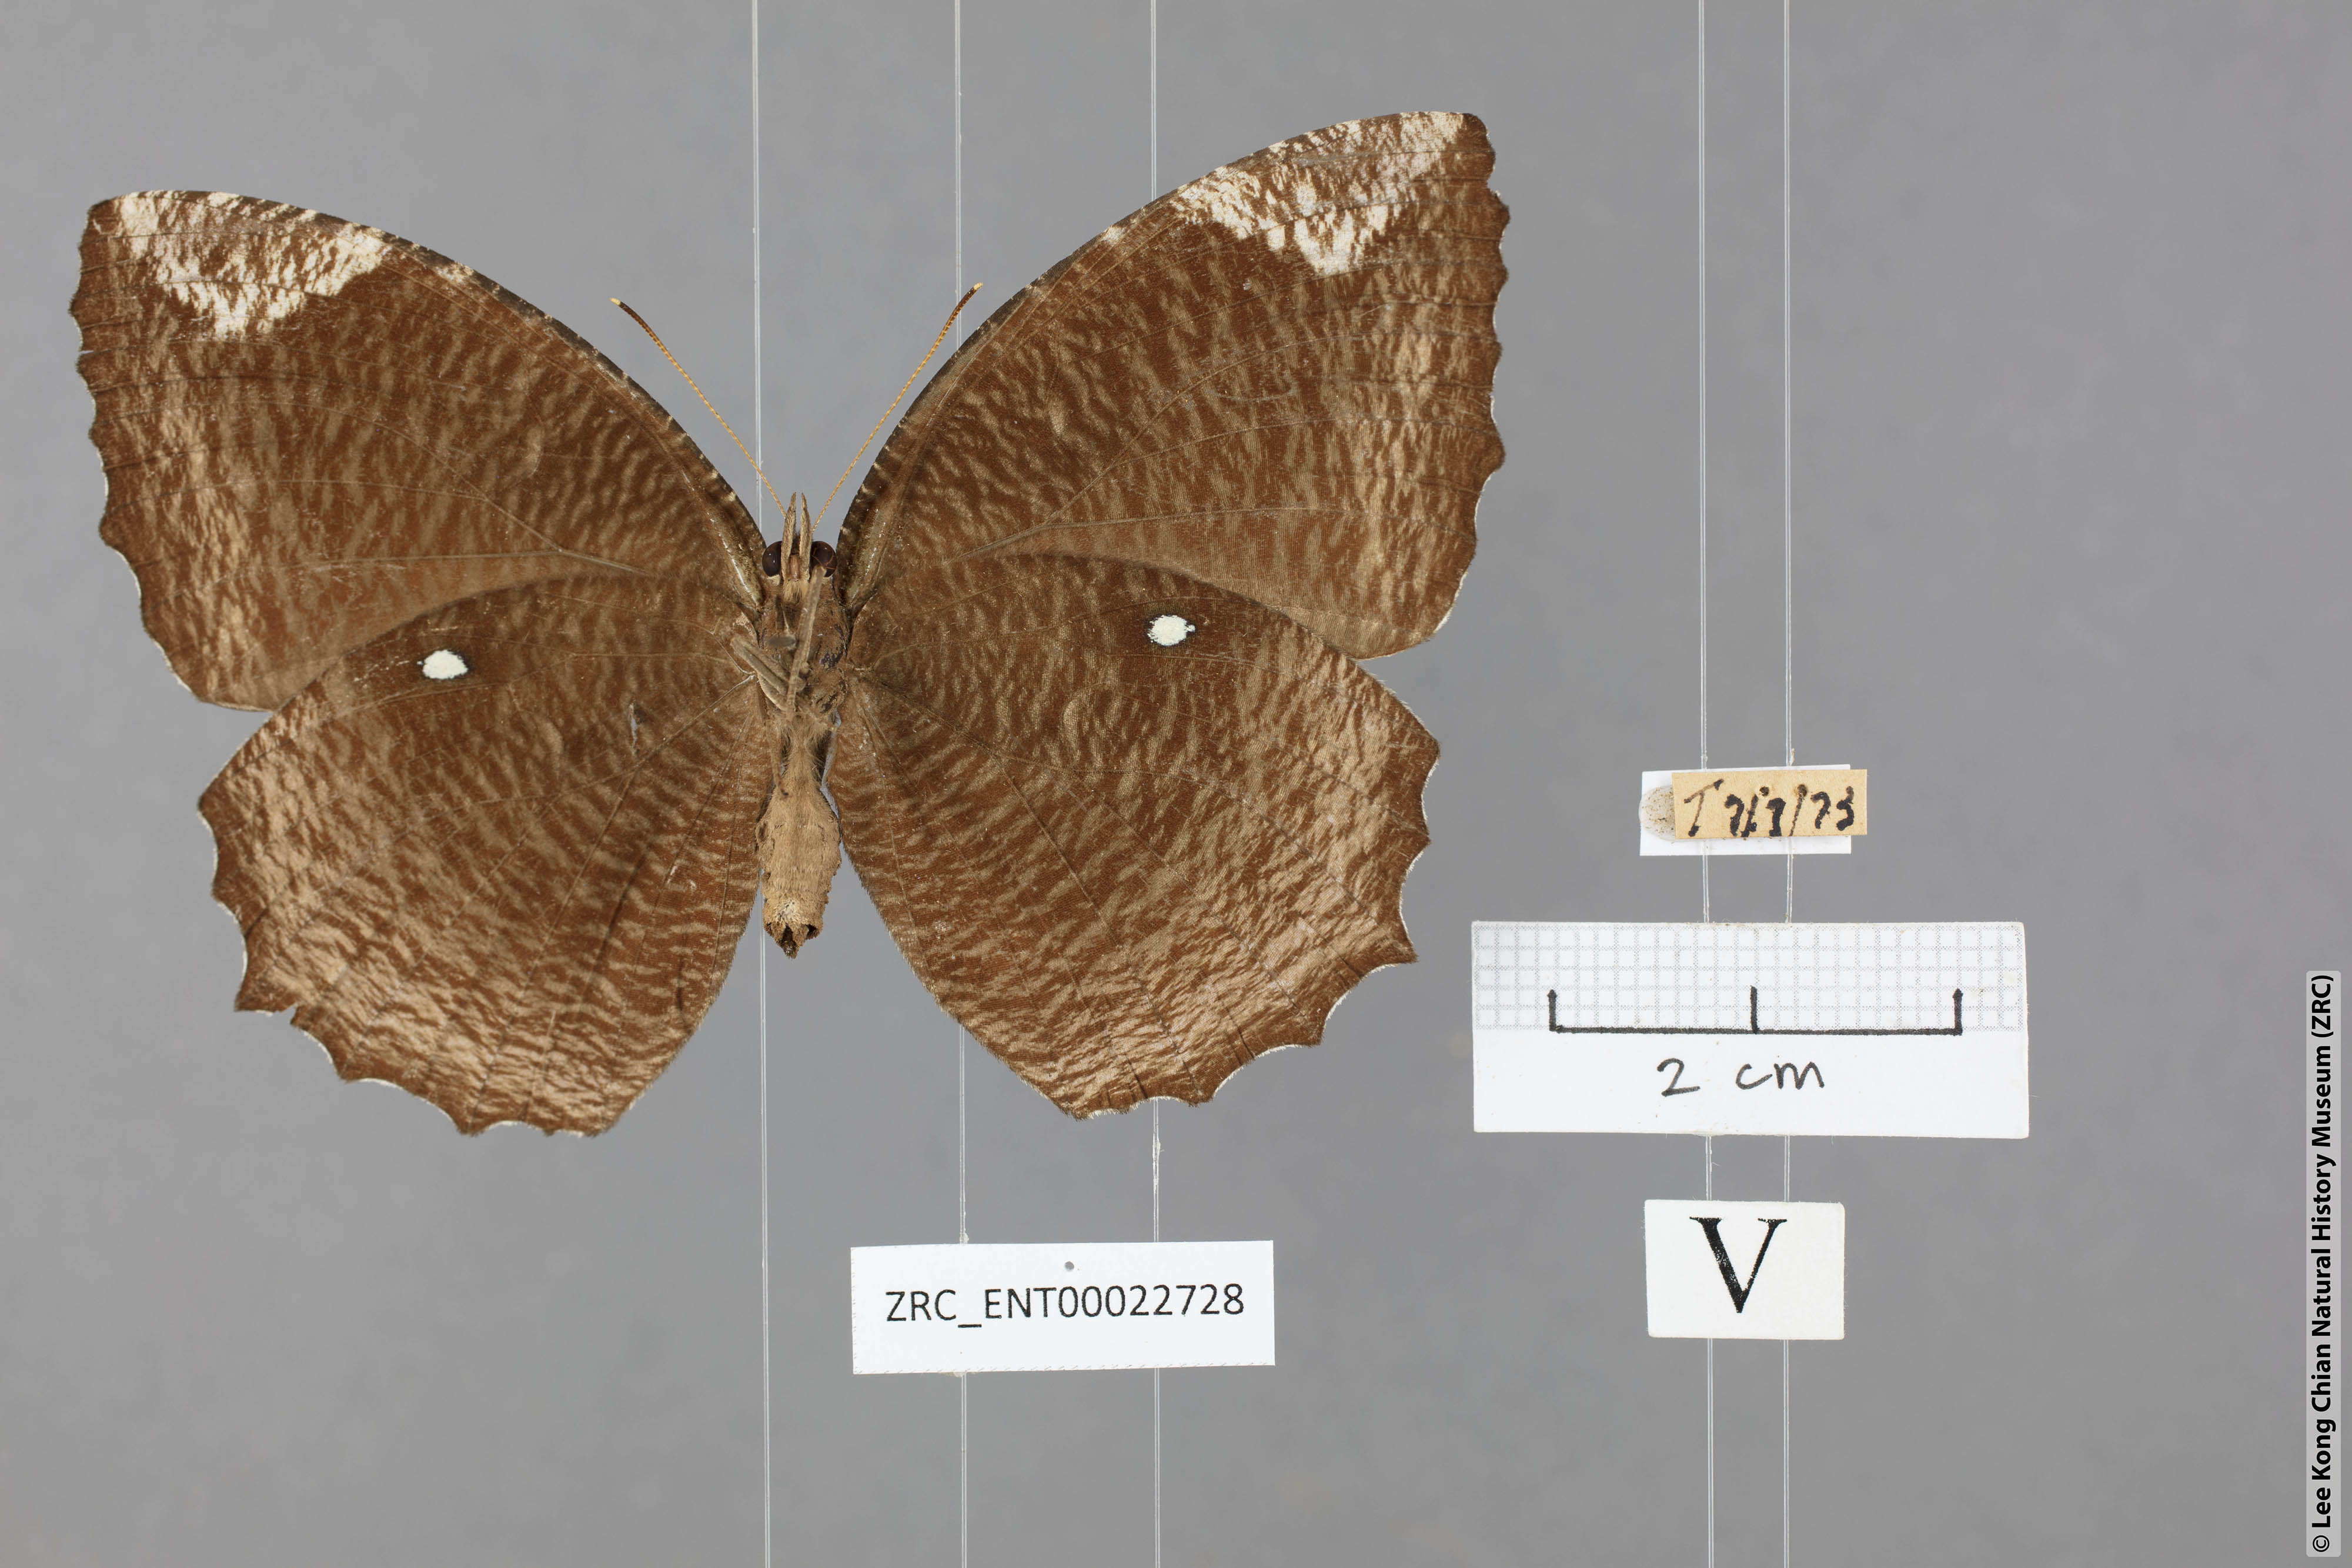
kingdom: Animalia
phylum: Arthropoda
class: Insecta
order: Lepidoptera
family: Nymphalidae
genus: Elymnias
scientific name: Elymnias hypermnestra
